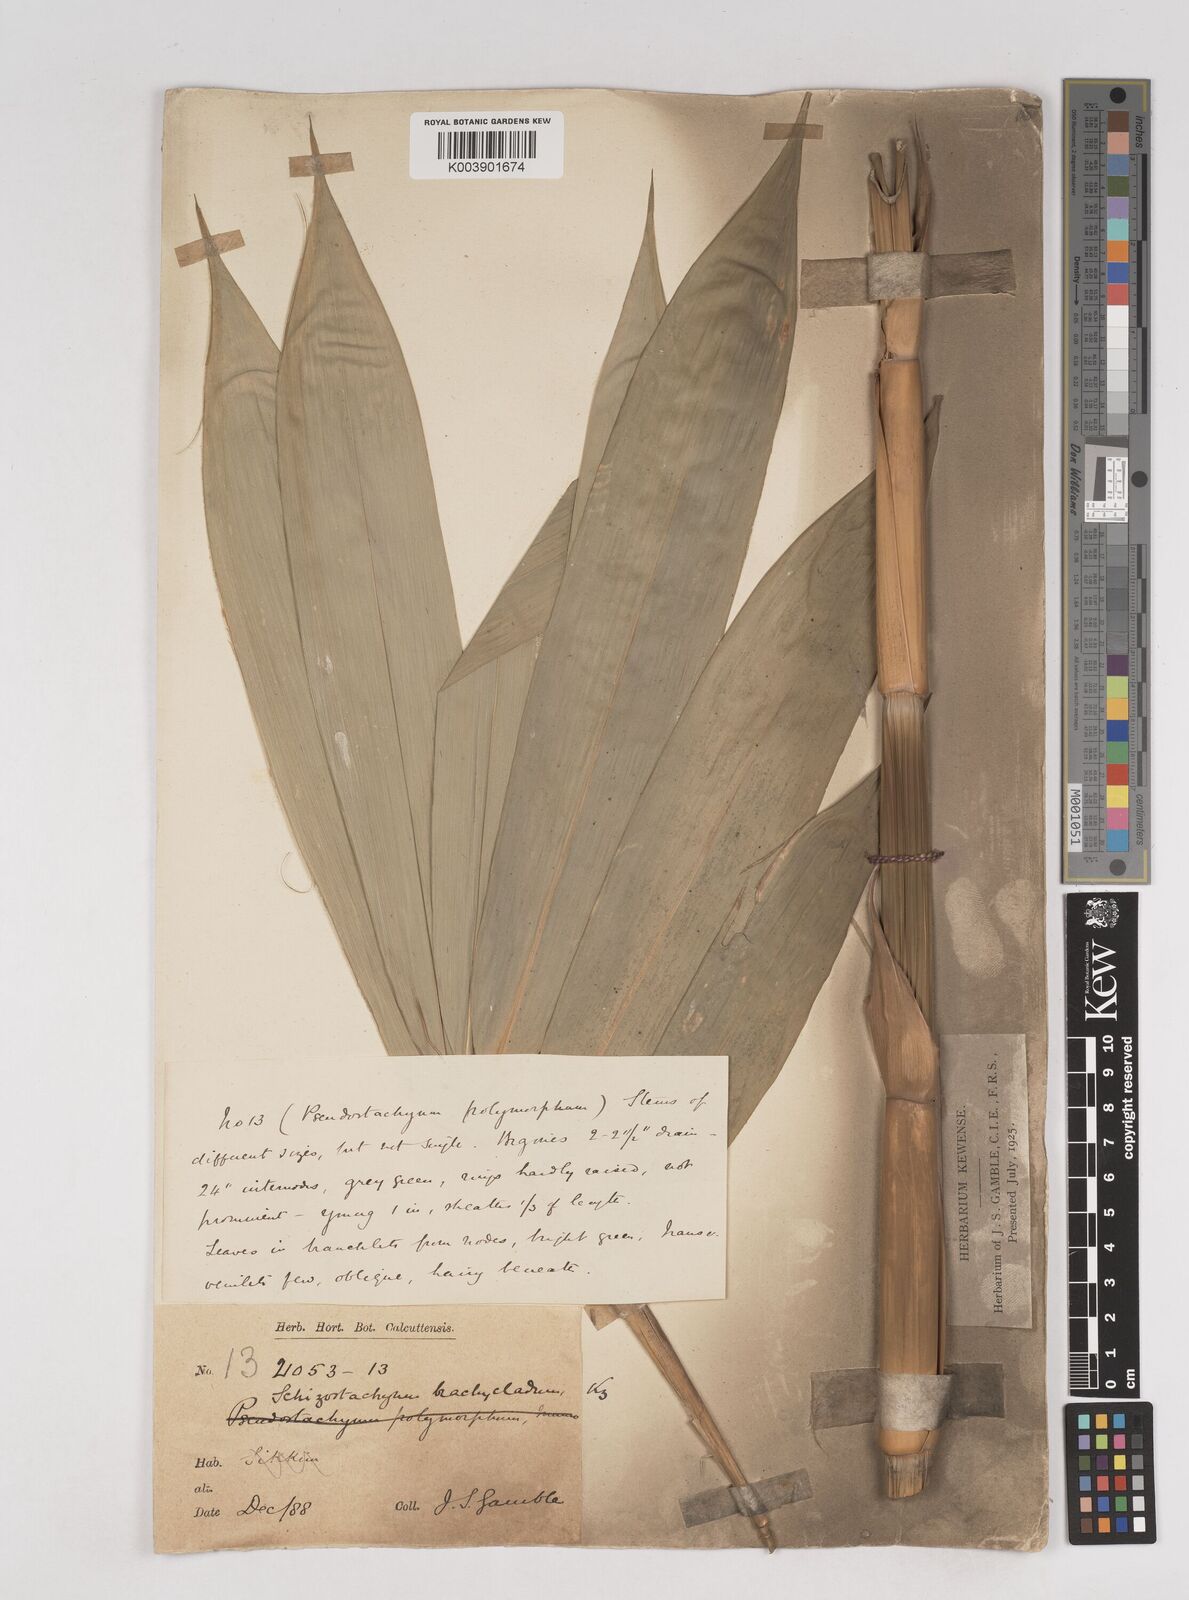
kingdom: Plantae
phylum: Tracheophyta
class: Liliopsida
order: Poales
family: Poaceae
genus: Schizostachyum
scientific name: Schizostachyum brachycladum
